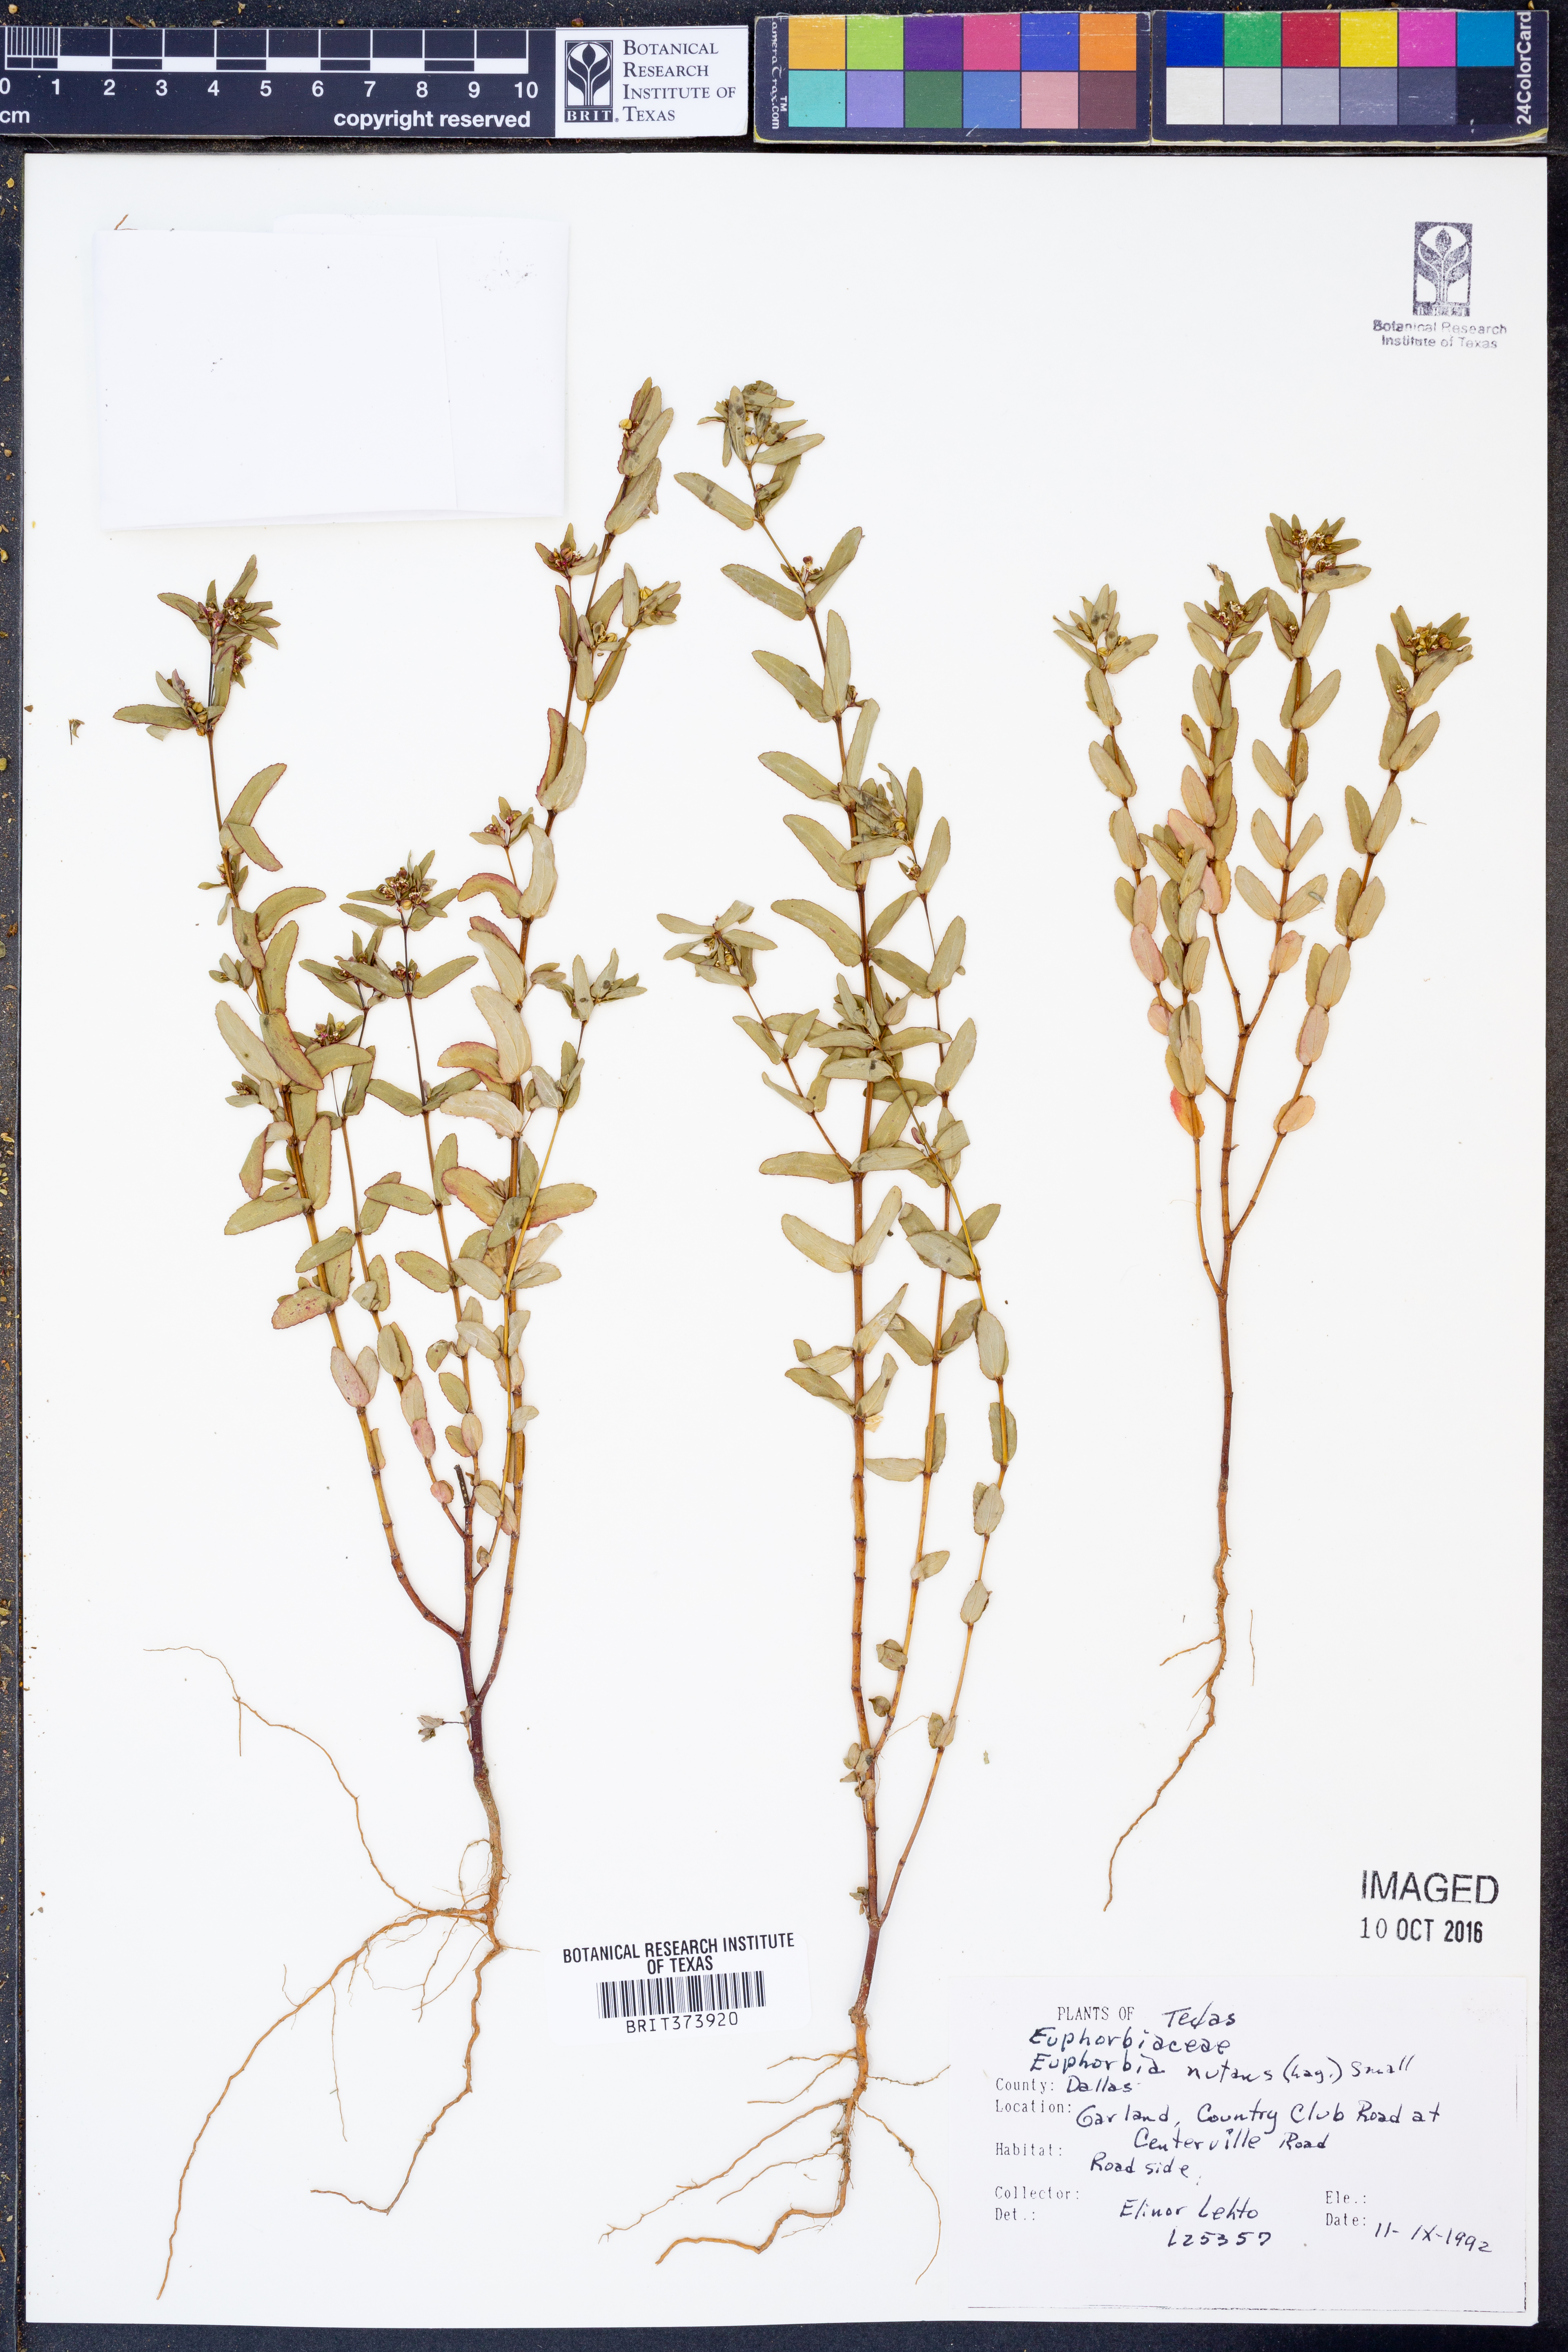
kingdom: Plantae
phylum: Tracheophyta
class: Magnoliopsida
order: Malpighiales
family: Euphorbiaceae
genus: Euphorbia
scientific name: Euphorbia nutans
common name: Eyebane
